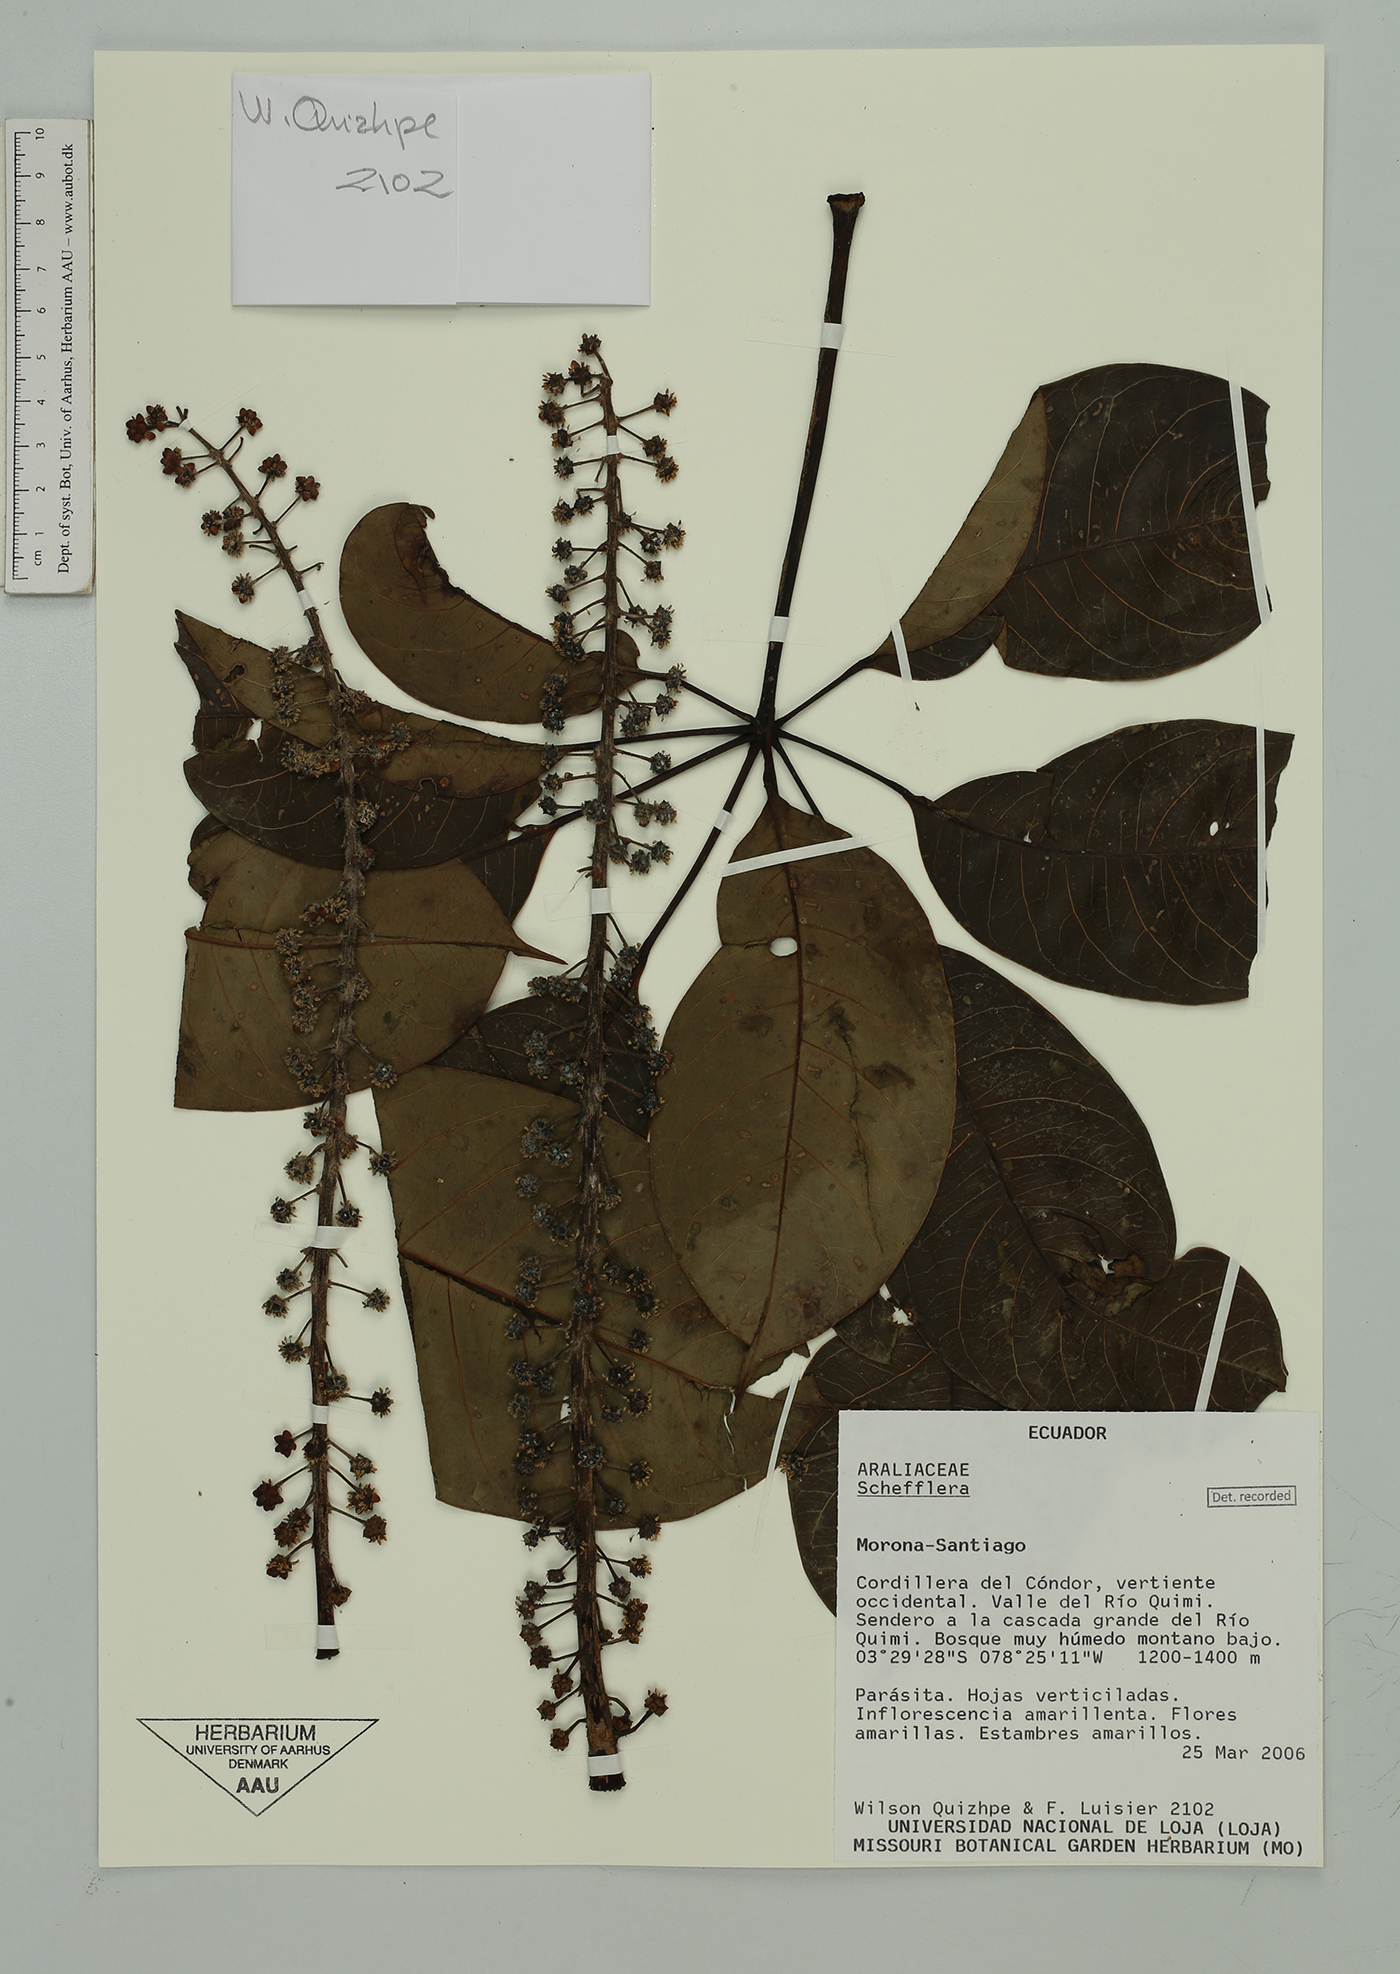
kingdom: Plantae
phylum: Tracheophyta
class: Magnoliopsida
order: Apiales
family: Araliaceae
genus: Sciodaphyllum
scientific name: Sciodaphyllum
